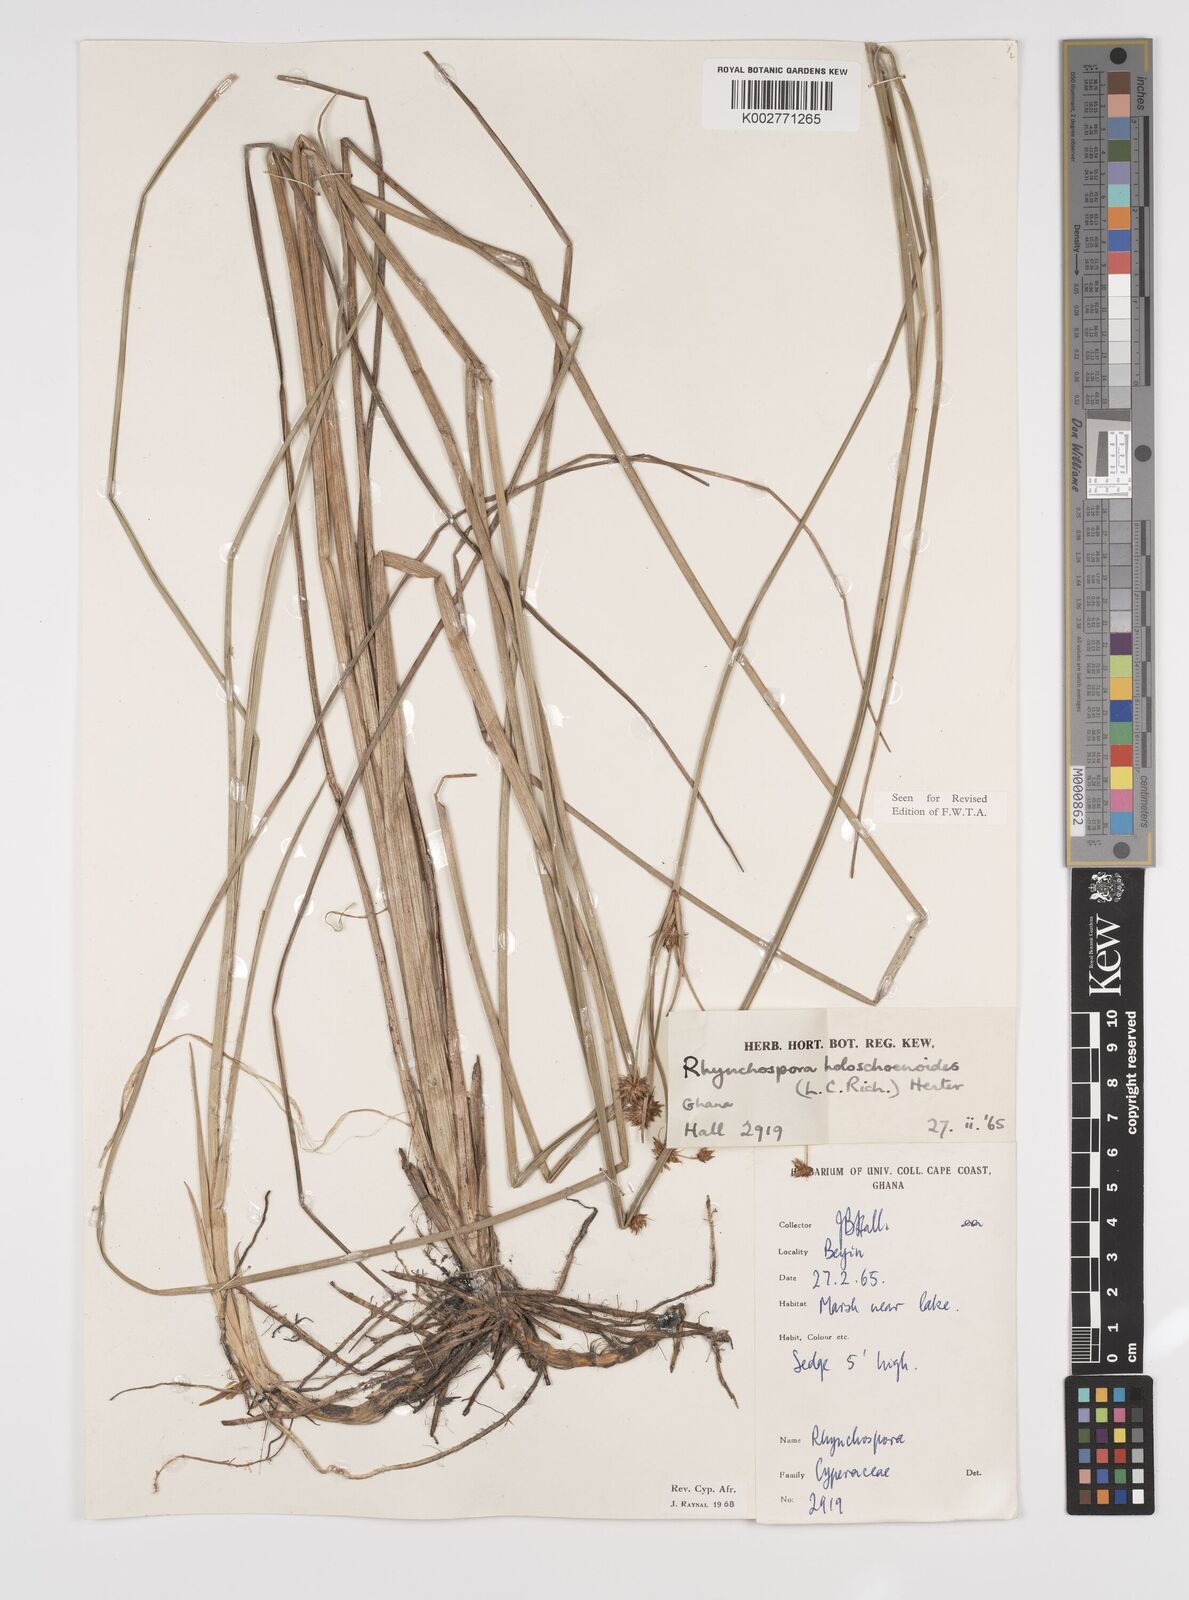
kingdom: Plantae
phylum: Tracheophyta
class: Liliopsida
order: Poales
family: Cyperaceae
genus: Rhynchospora
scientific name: Rhynchospora holoschoenoides
